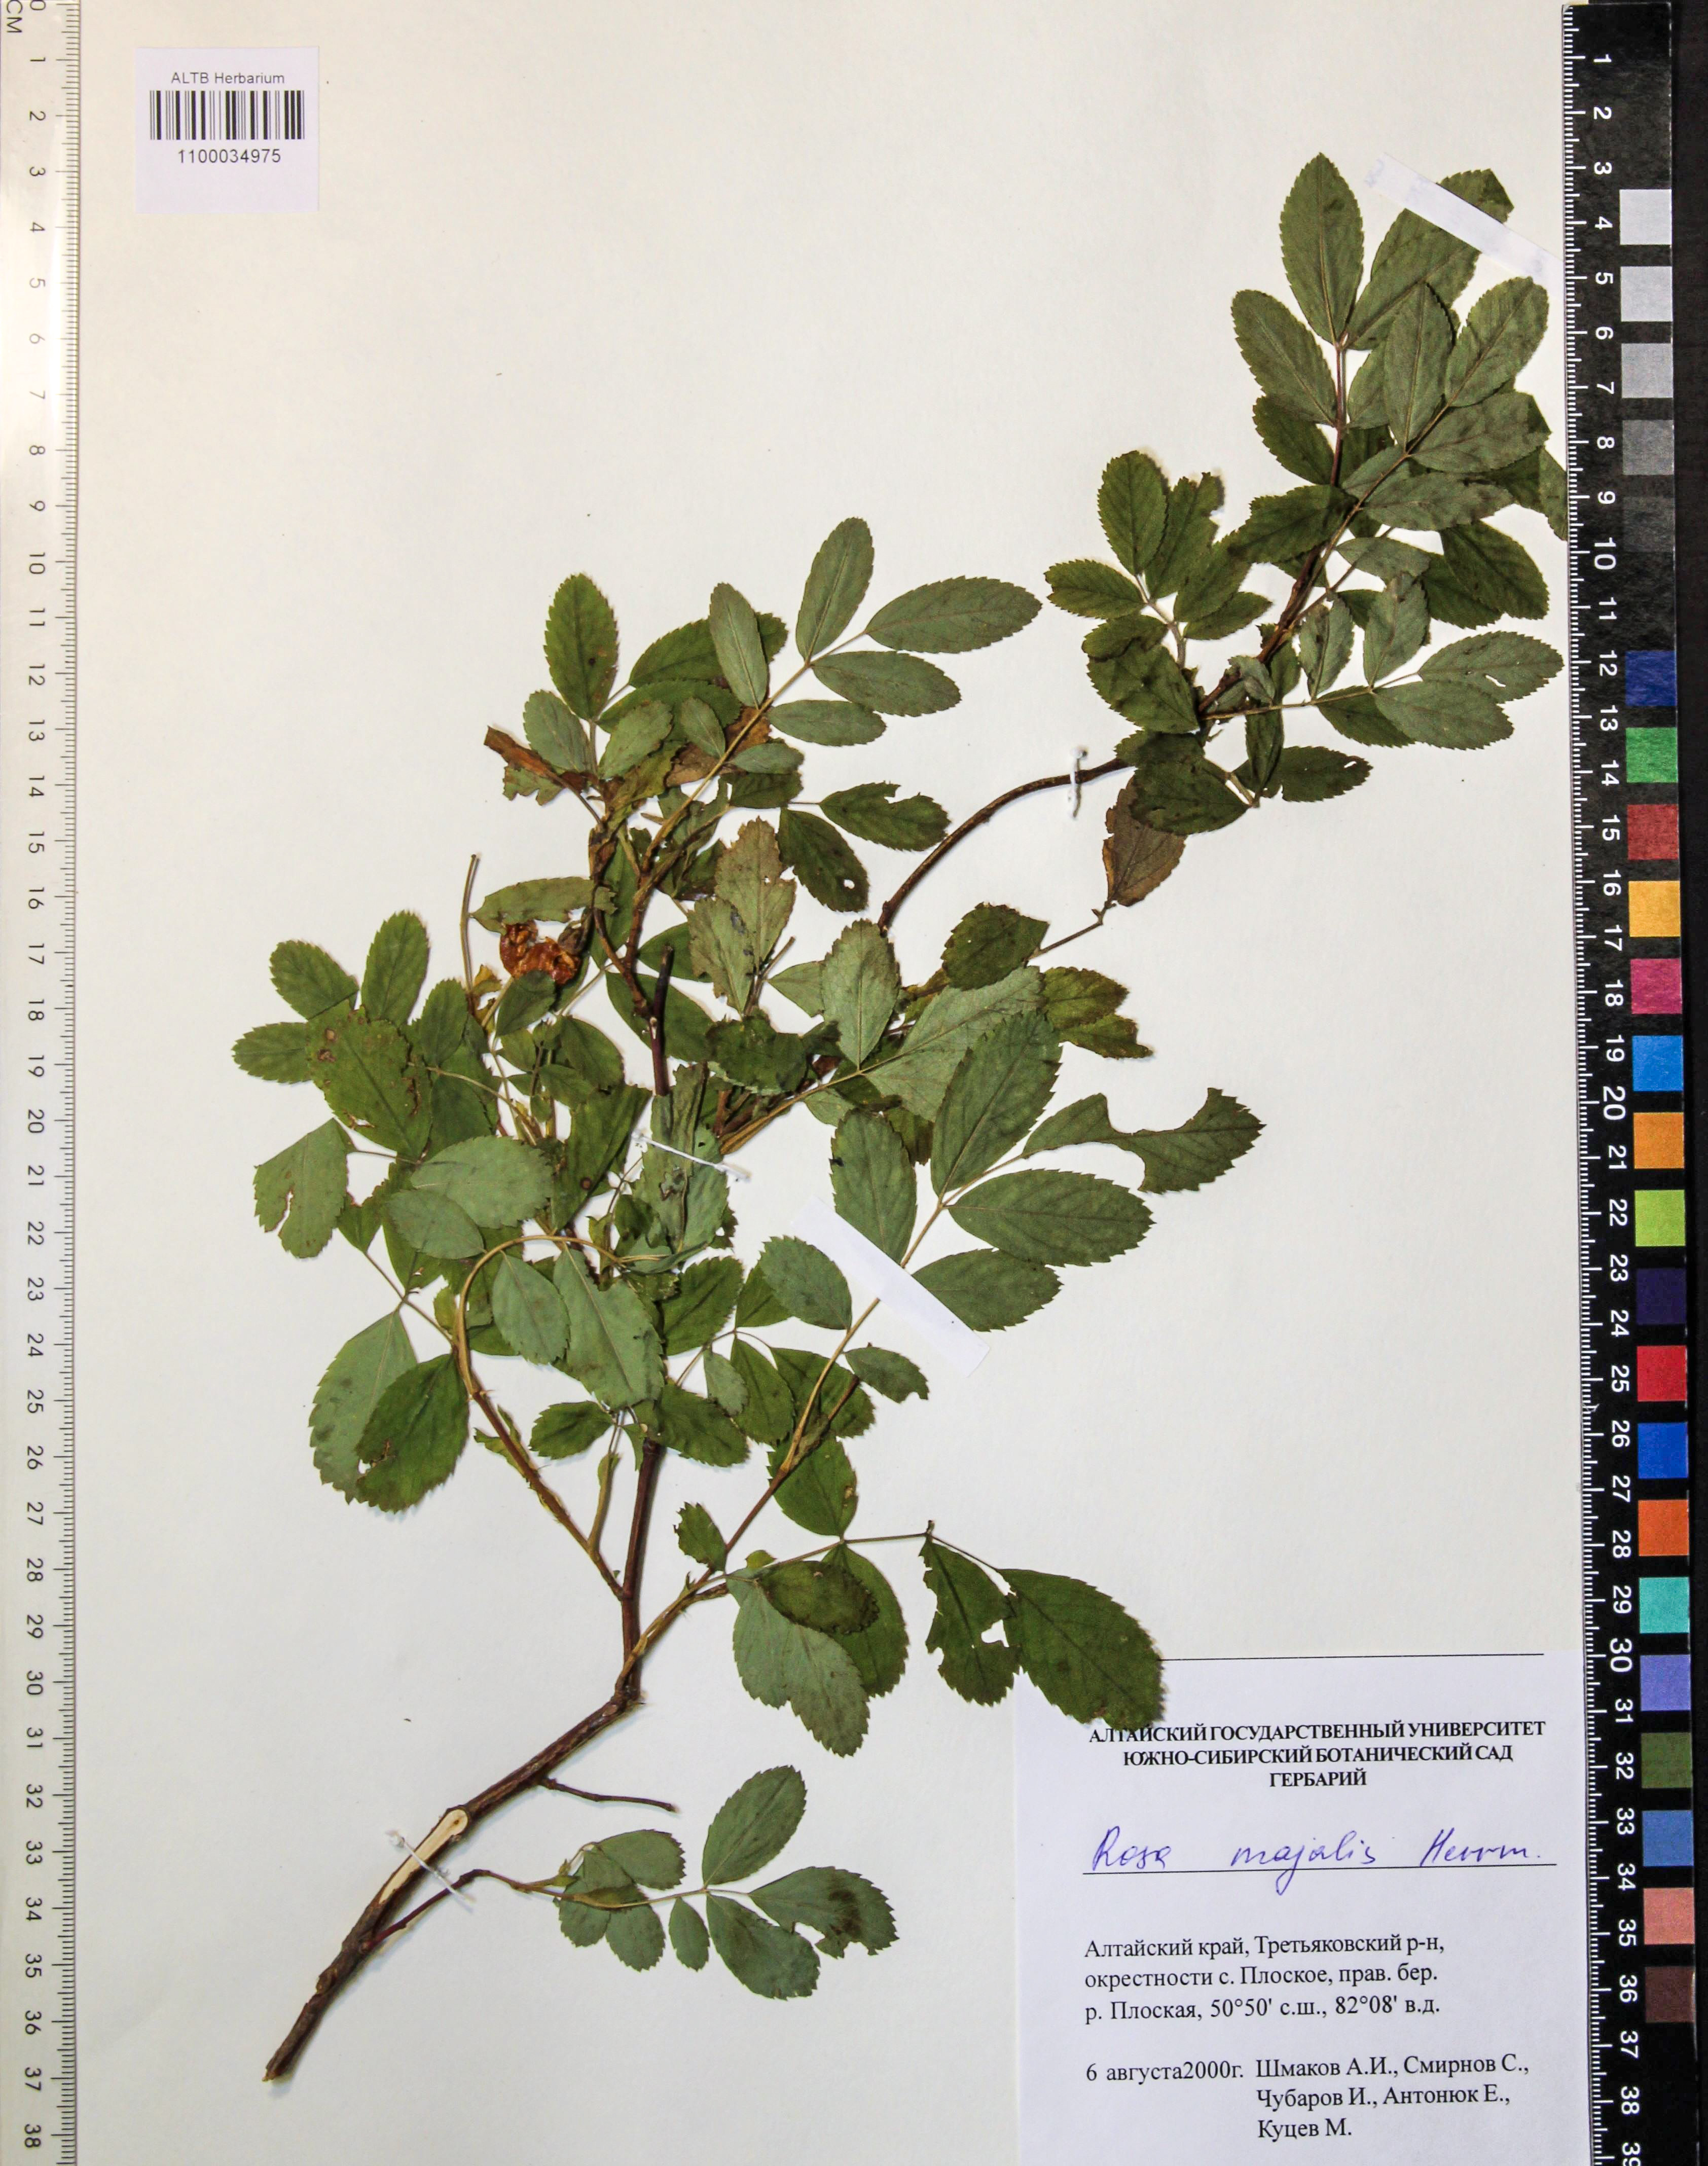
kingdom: Plantae
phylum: Tracheophyta
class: Magnoliopsida
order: Rosales
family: Rosaceae
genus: Rosa
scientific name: Rosa majalis
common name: Cinnamon rose
